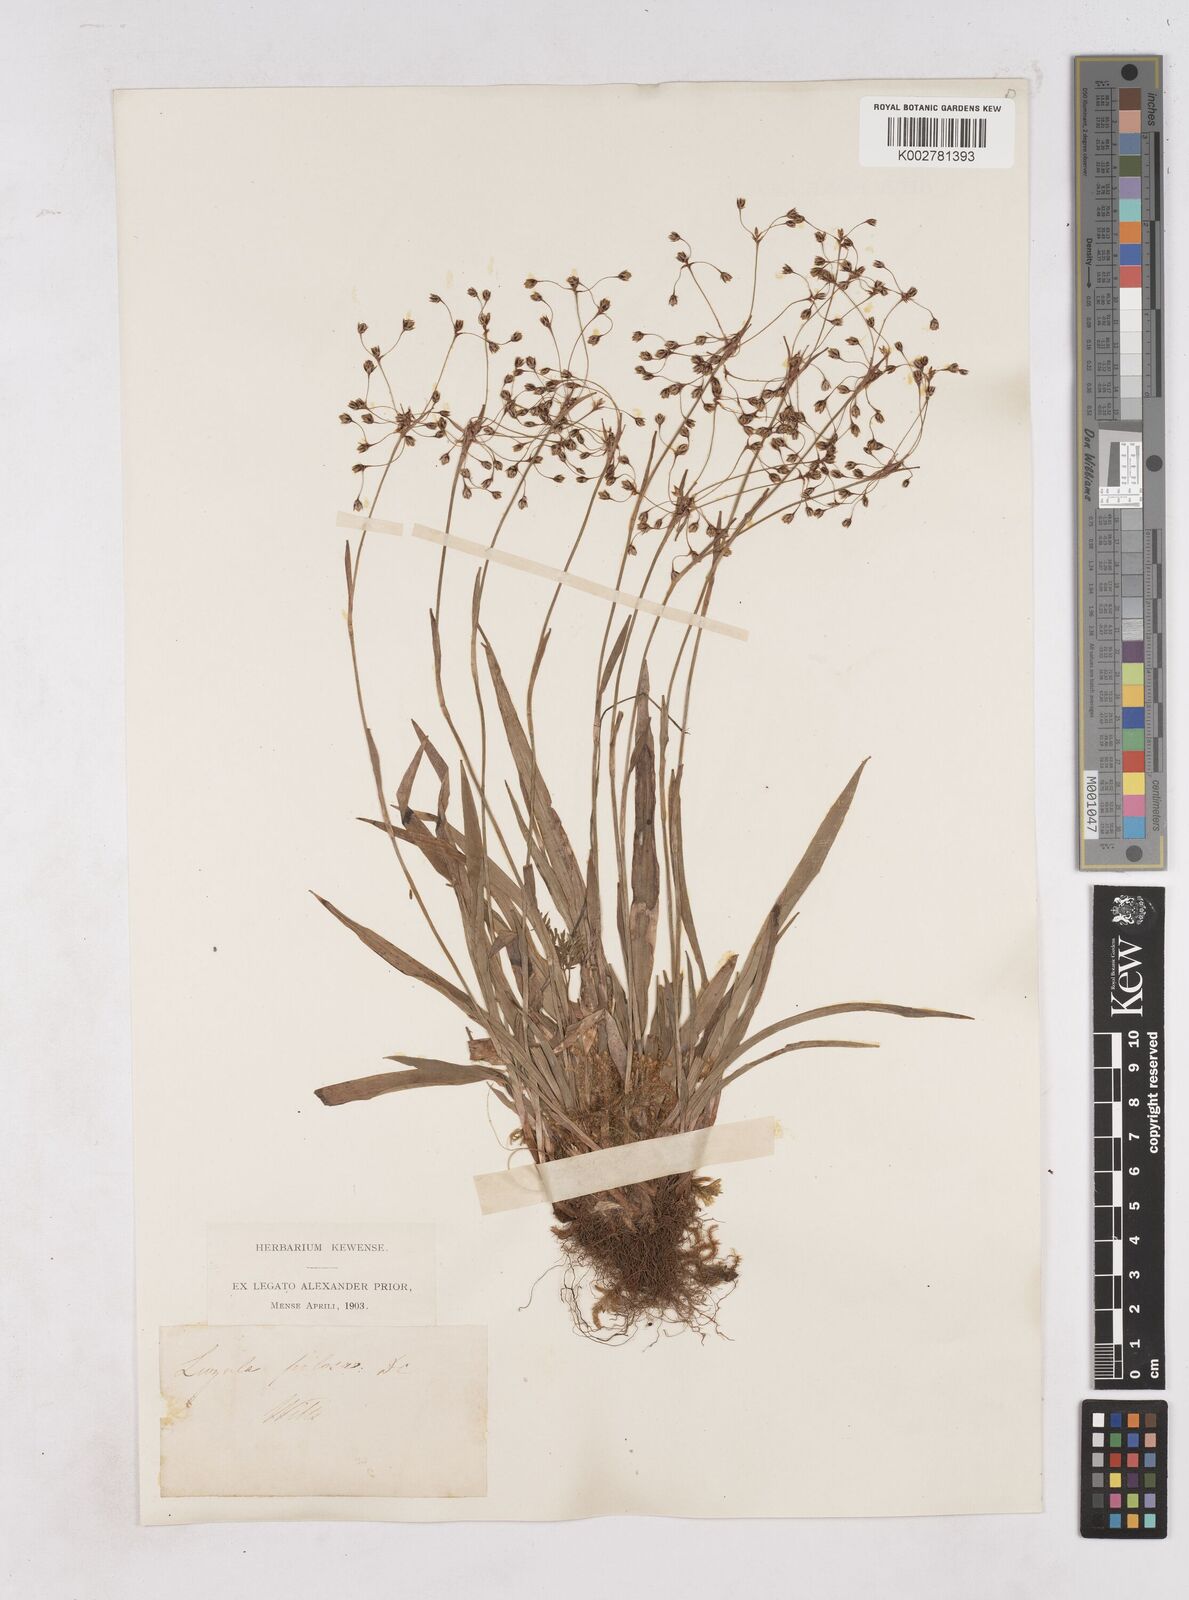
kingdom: Plantae
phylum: Tracheophyta
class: Liliopsida
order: Poales
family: Juncaceae
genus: Luzula
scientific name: Luzula pilosa
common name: Hairy wood-rush
